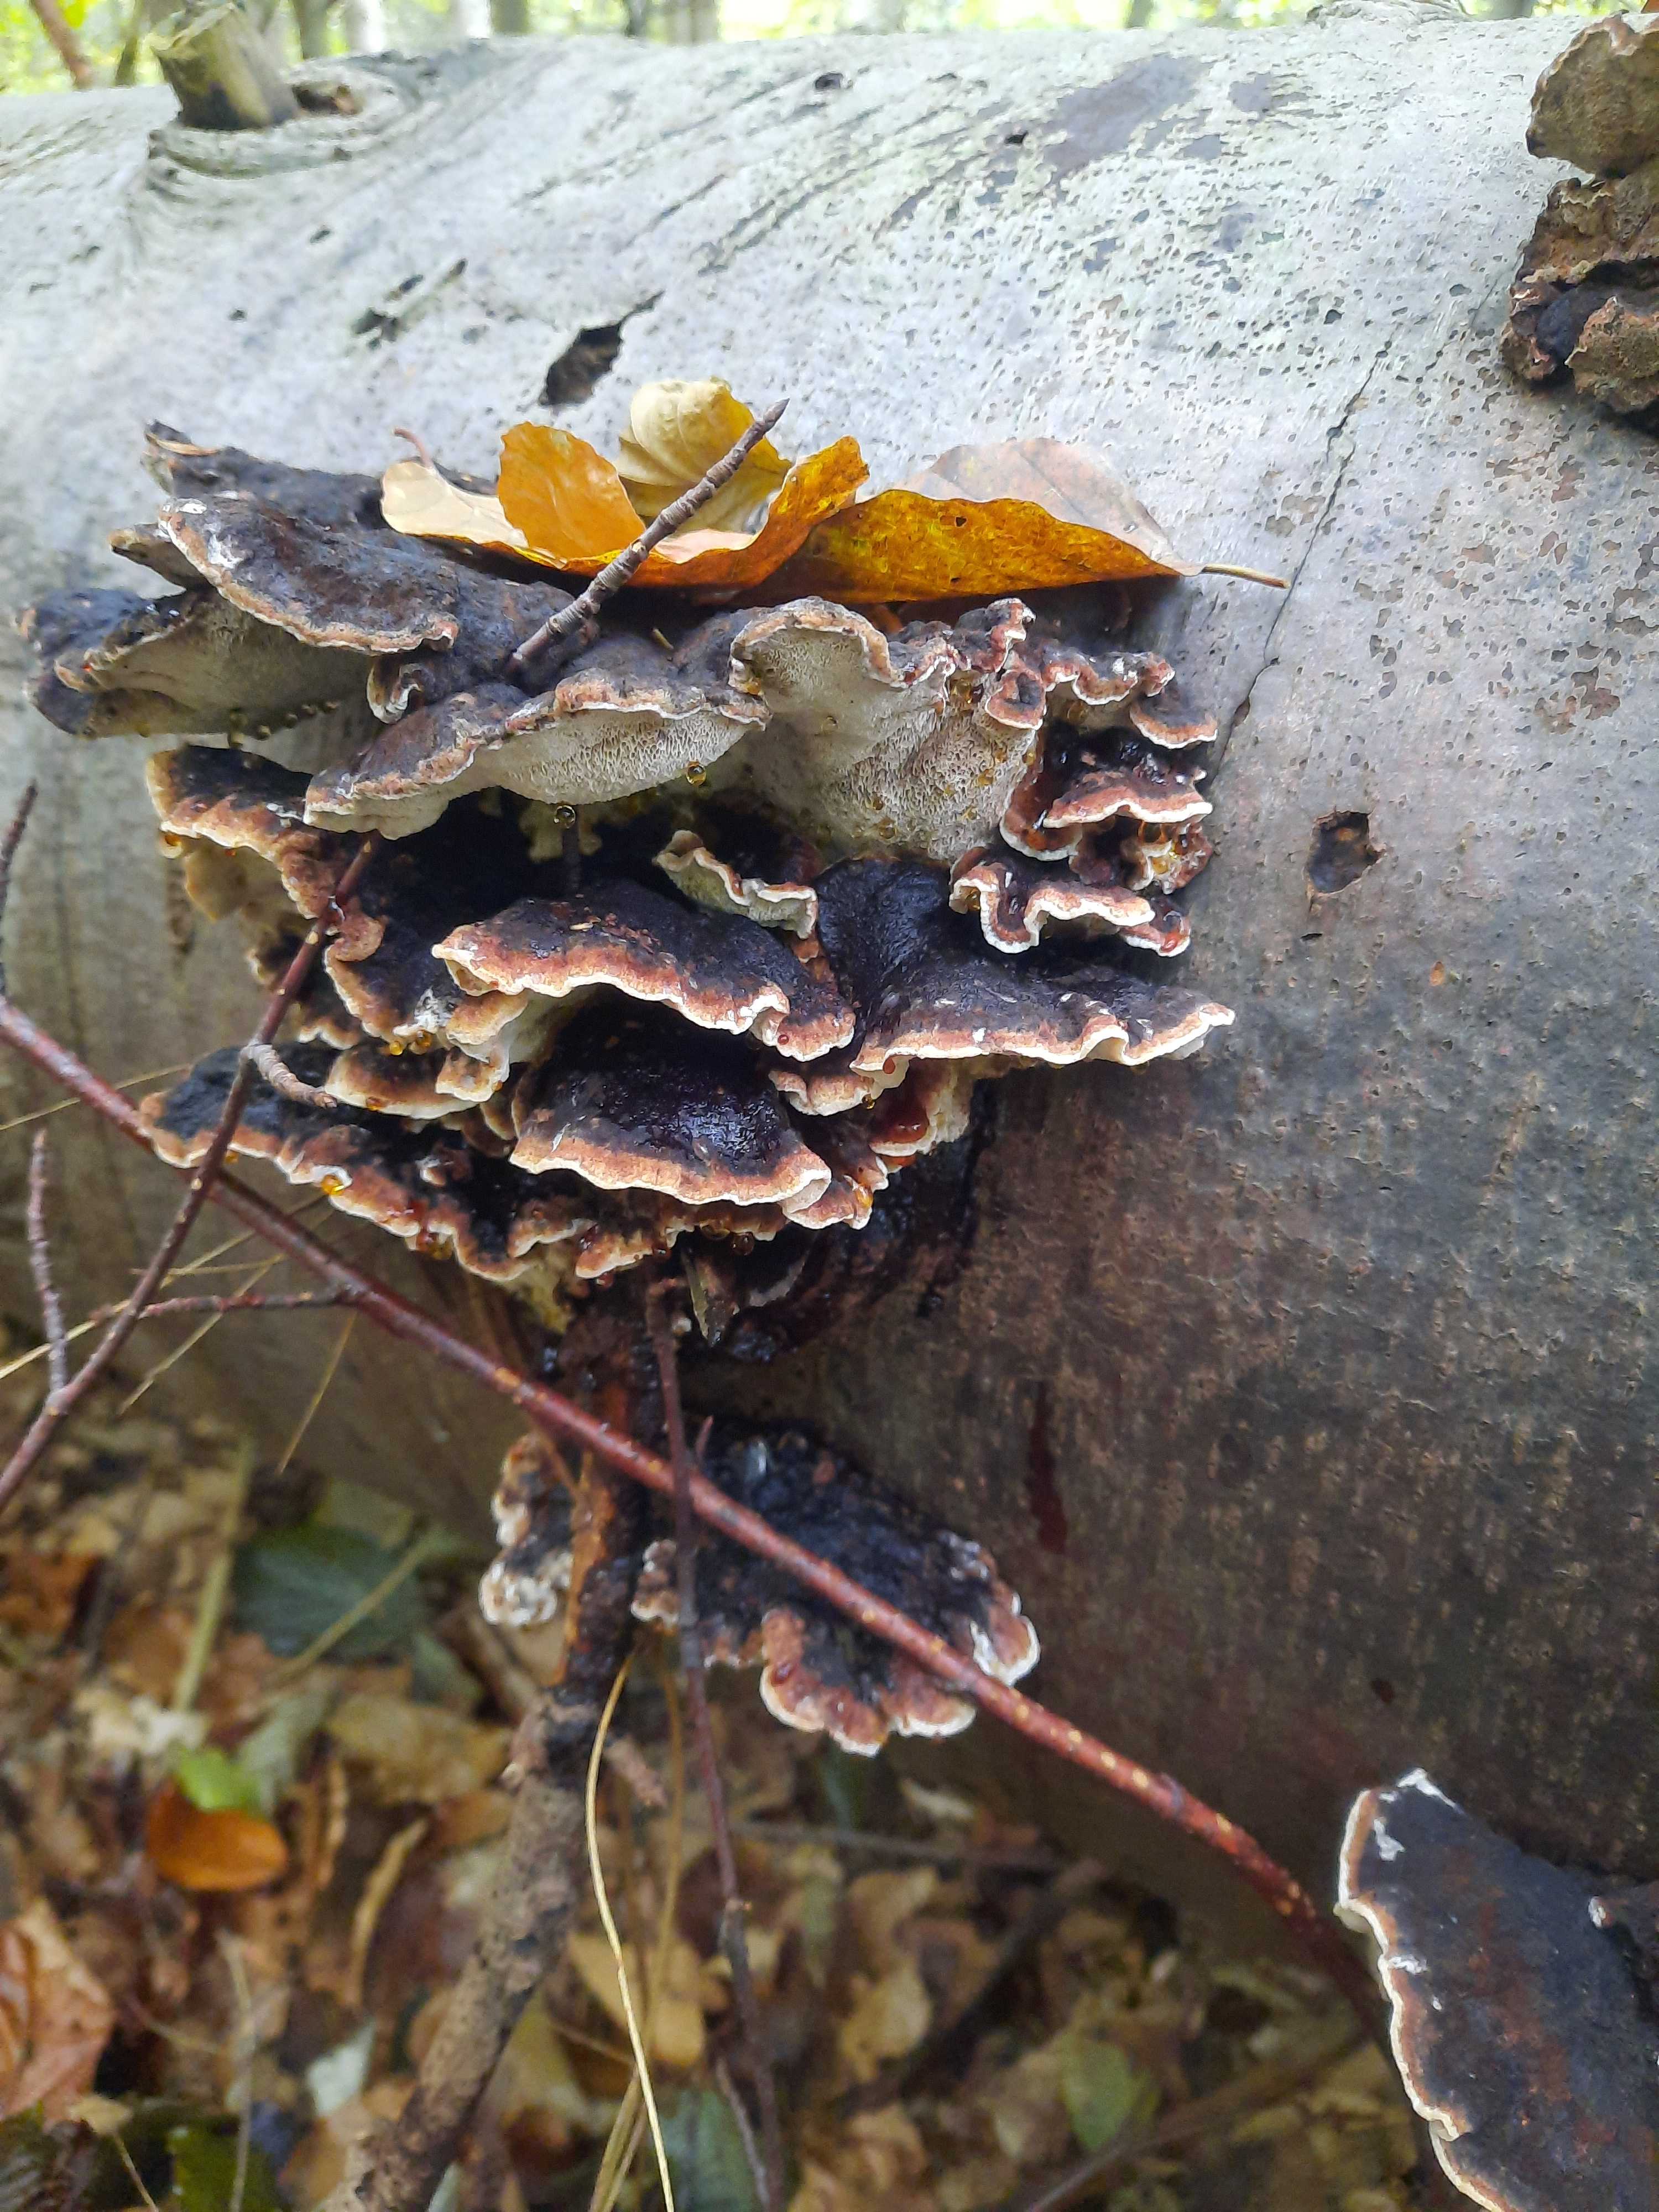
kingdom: Fungi
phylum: Basidiomycota
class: Agaricomycetes
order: Polyporales
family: Ischnodermataceae
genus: Ischnoderma
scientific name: Ischnoderma benzoinum
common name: gran-tjæreporesvamp
